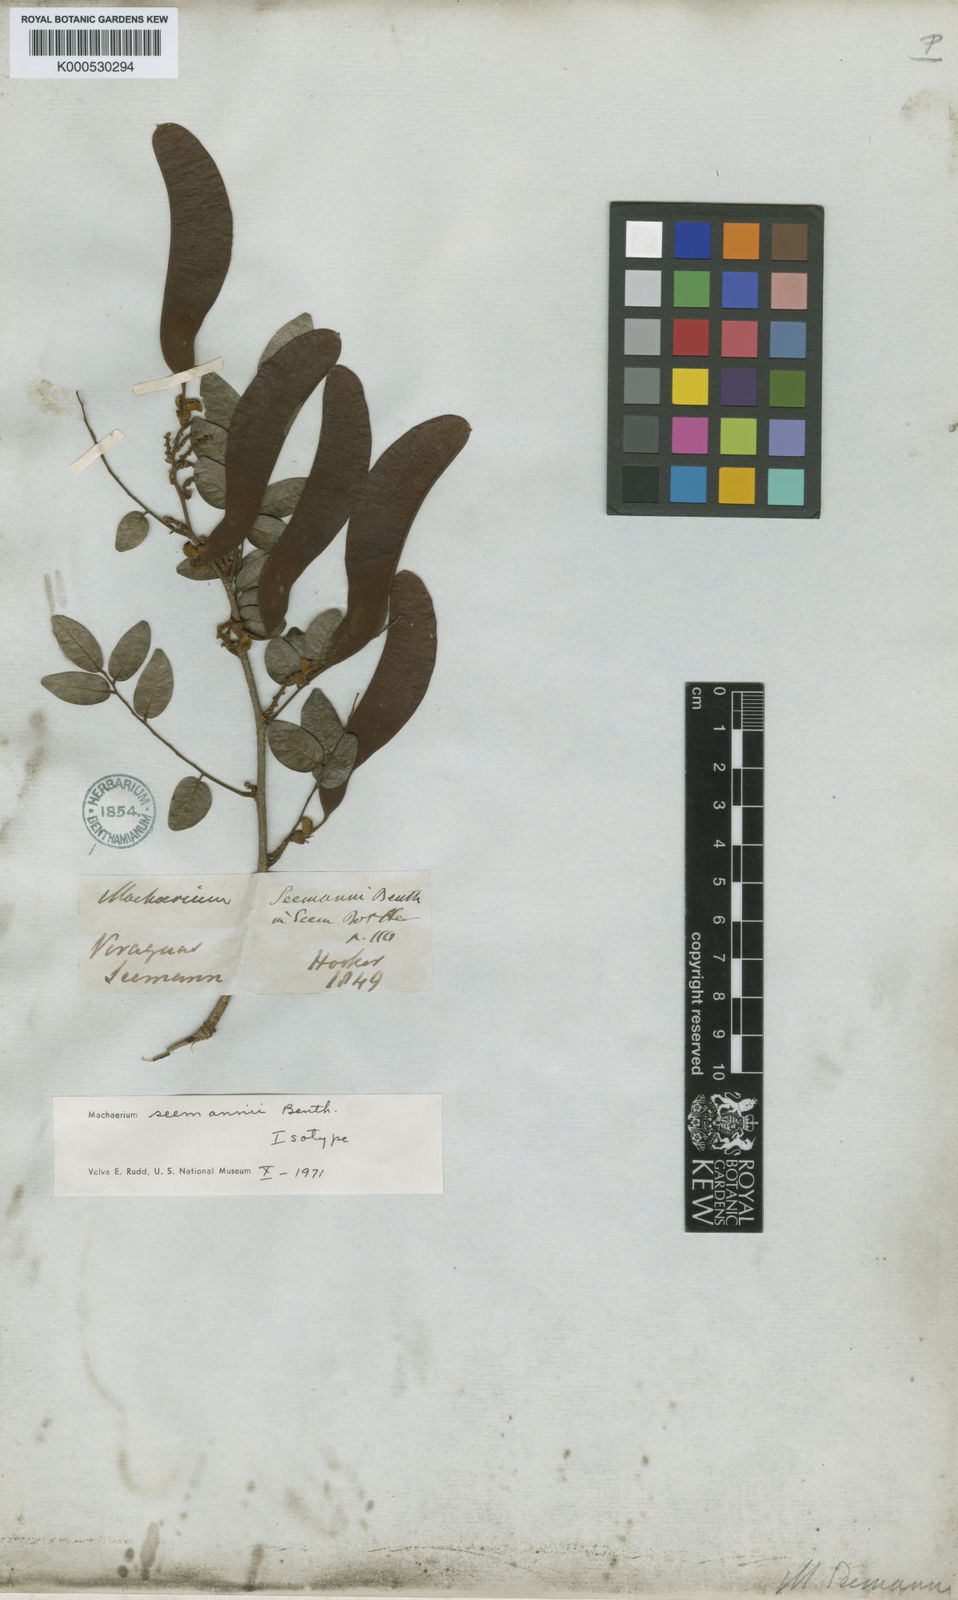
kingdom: Plantae
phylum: Tracheophyta
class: Magnoliopsida
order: Fabales
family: Fabaceae
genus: Machaerium
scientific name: Machaerium seemannii
